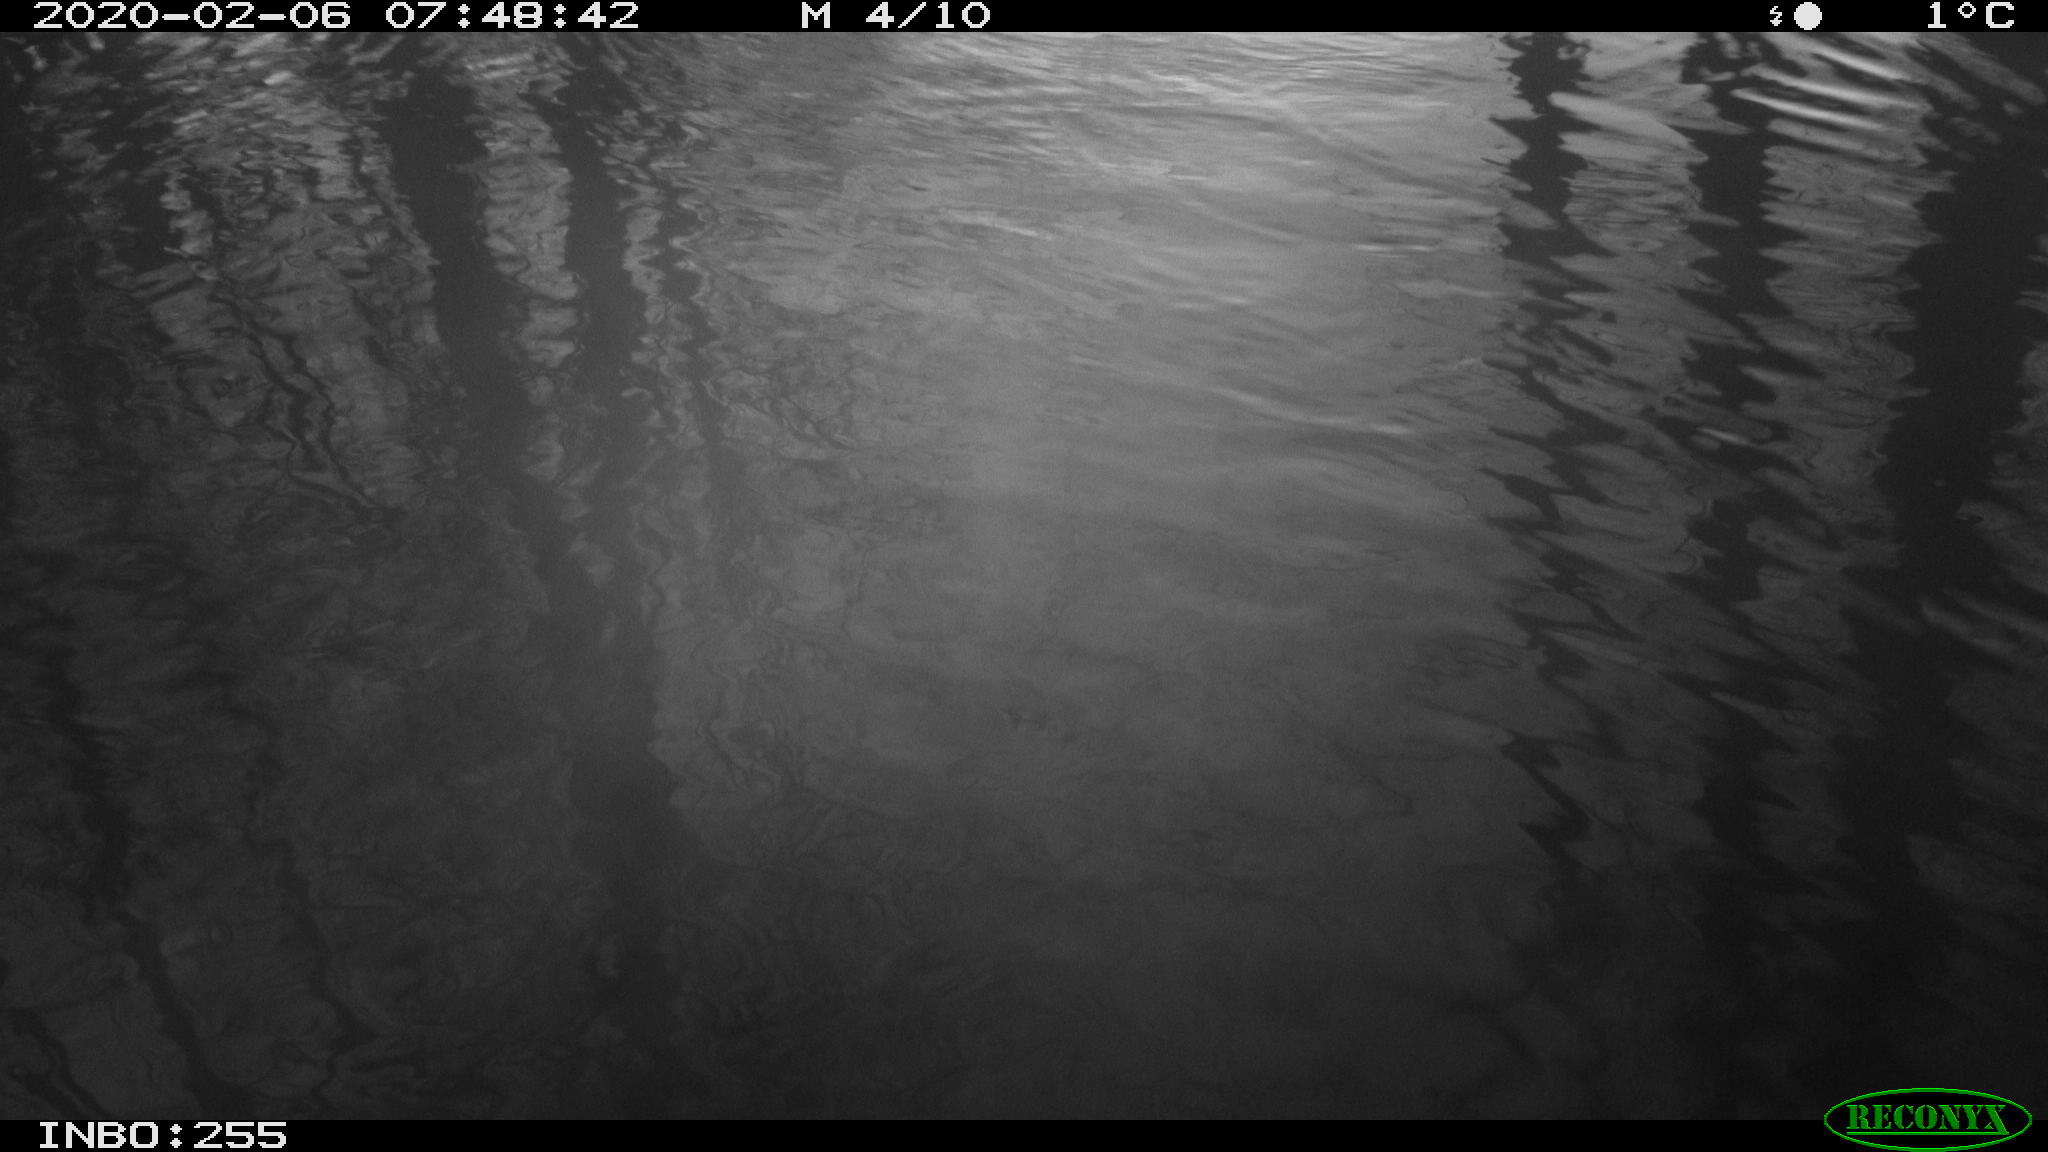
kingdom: Animalia
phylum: Chordata
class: Aves
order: Gruiformes
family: Rallidae
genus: Fulica
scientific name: Fulica atra
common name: Eurasian coot
